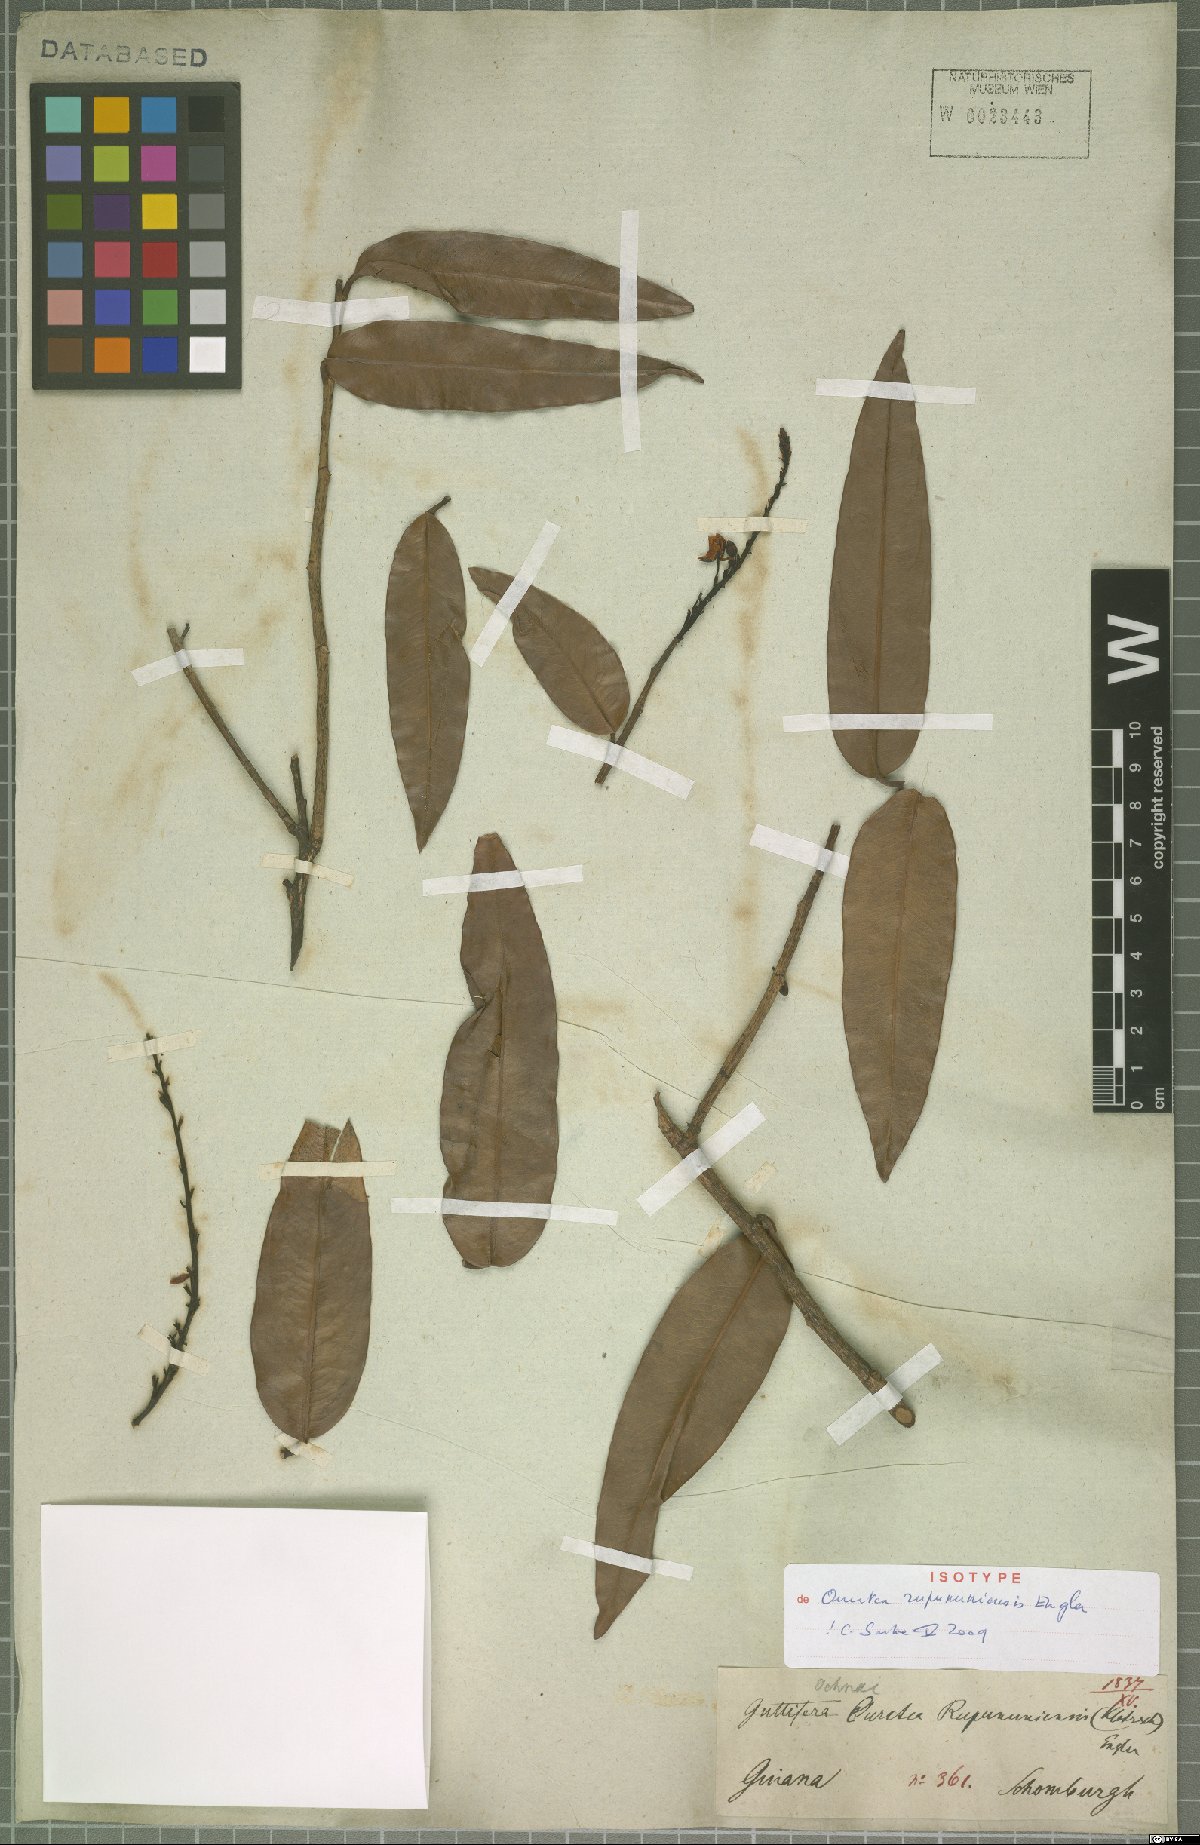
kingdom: Plantae
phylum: Tracheophyta
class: Magnoliopsida
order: Malpighiales
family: Ochnaceae
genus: Ouratea
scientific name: Ouratea rupununiensis
